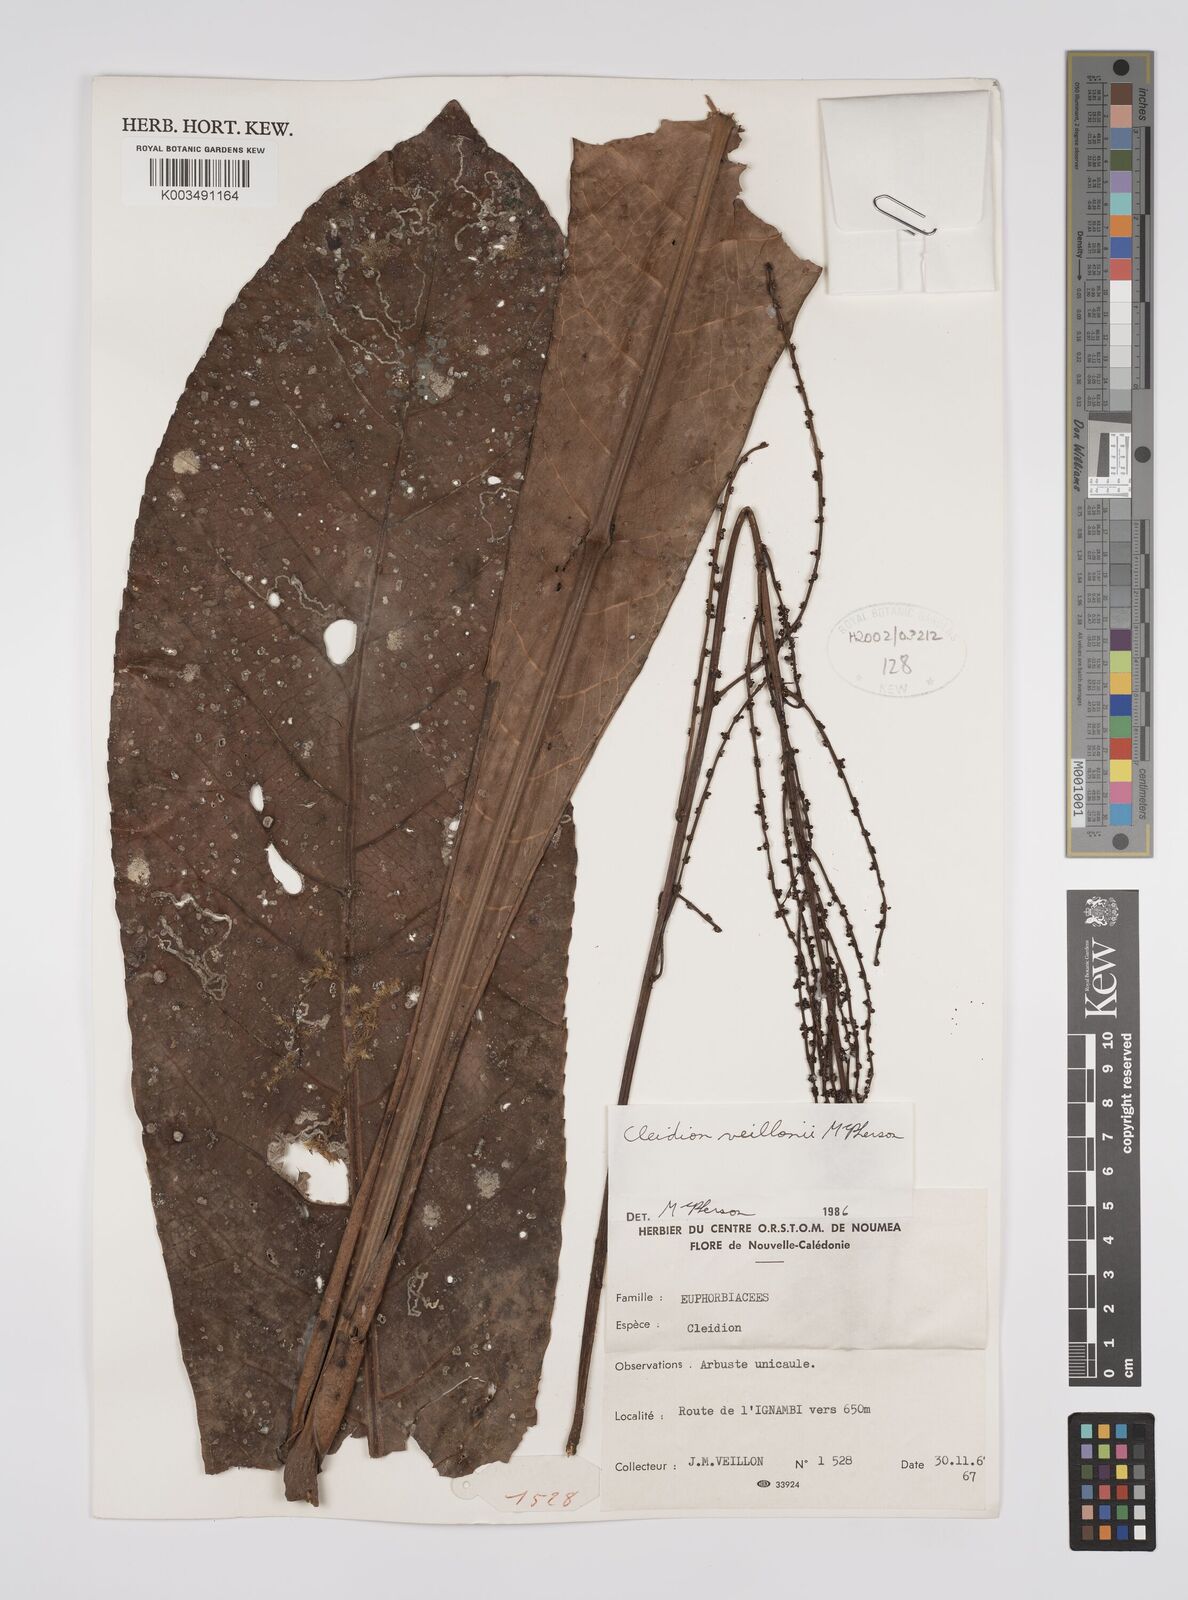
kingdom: Plantae
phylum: Tracheophyta
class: Magnoliopsida
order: Malpighiales
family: Euphorbiaceae
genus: Cleidion
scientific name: Cleidion veillonii
